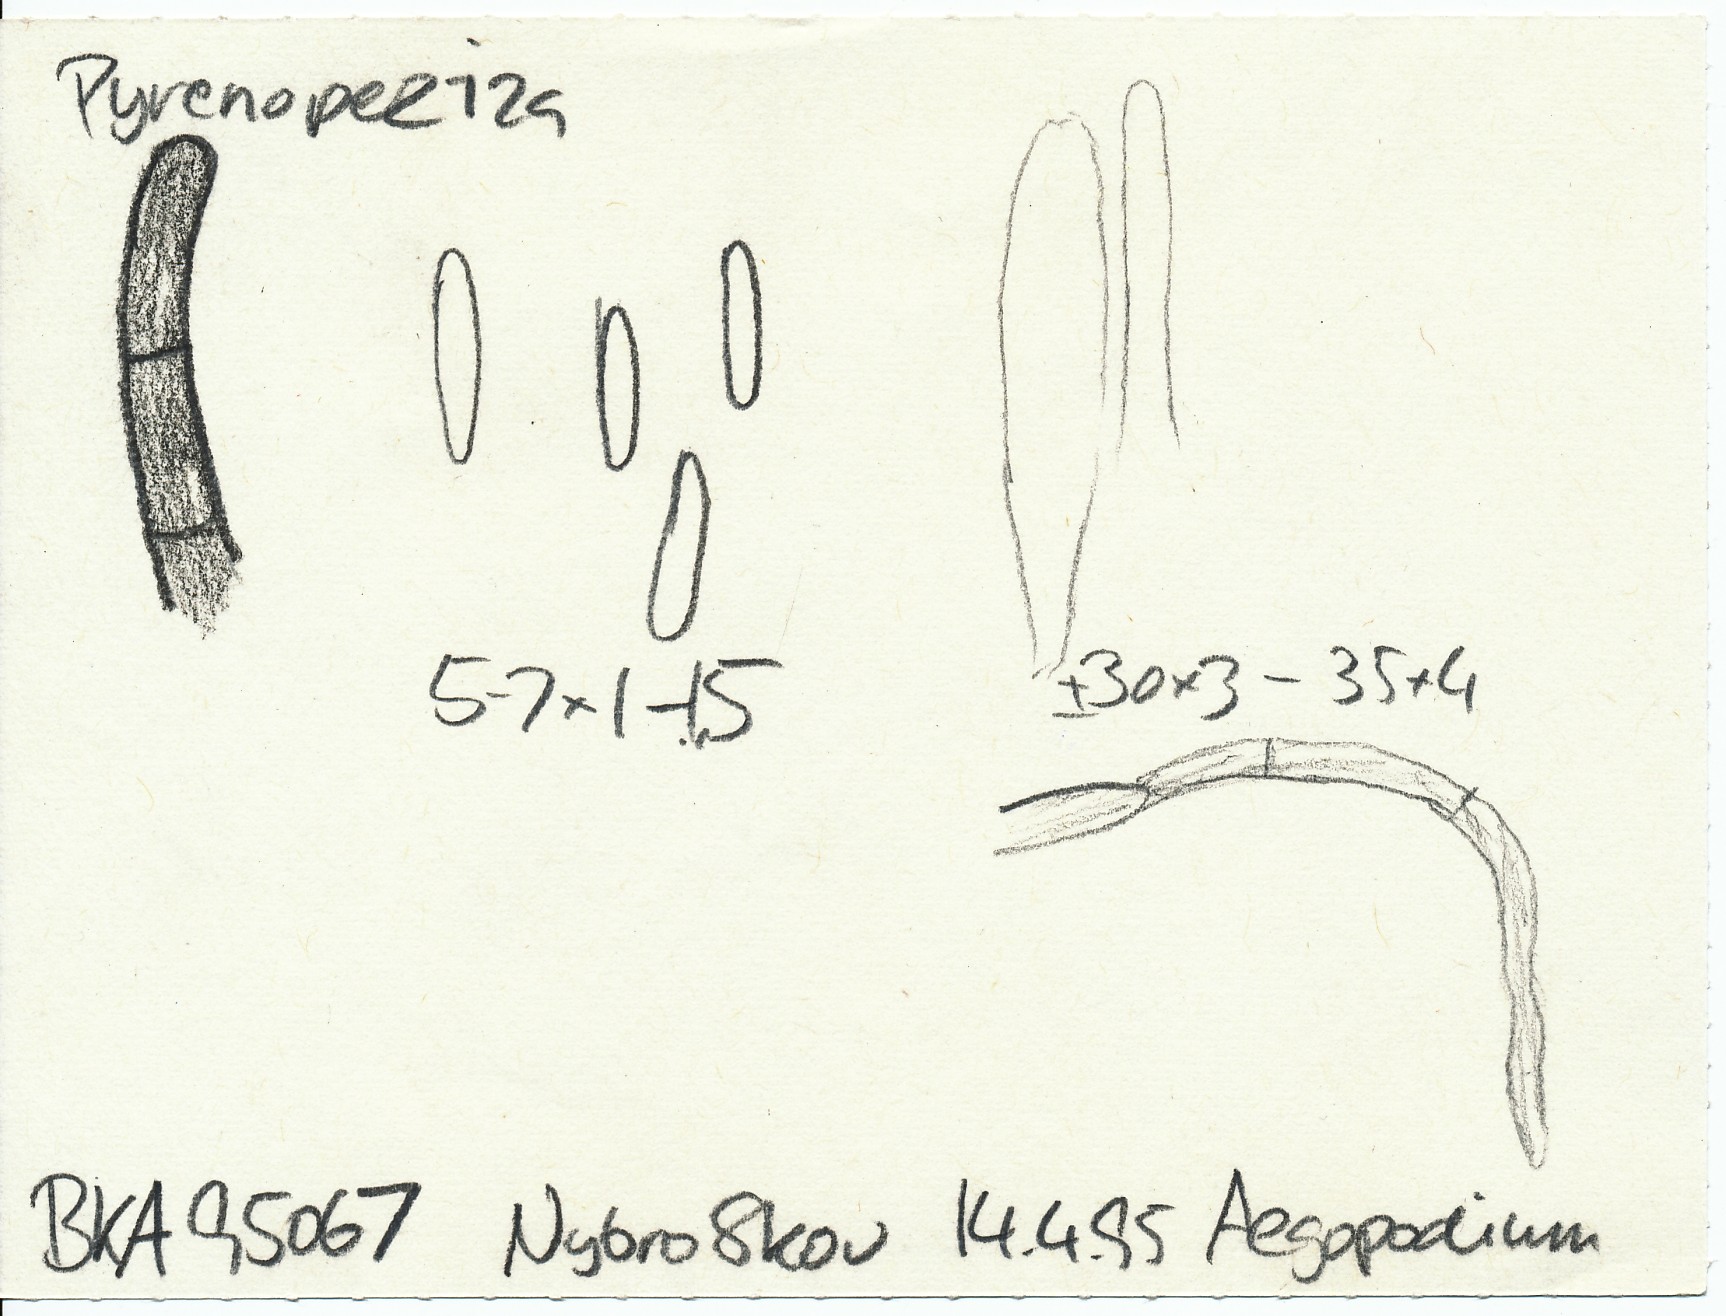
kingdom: Fungi
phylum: Ascomycota
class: Leotiomycetes
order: Helotiales
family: Ploettnerulaceae
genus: Pyrenopeziza
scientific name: Pyrenopeziza adenostylidis
